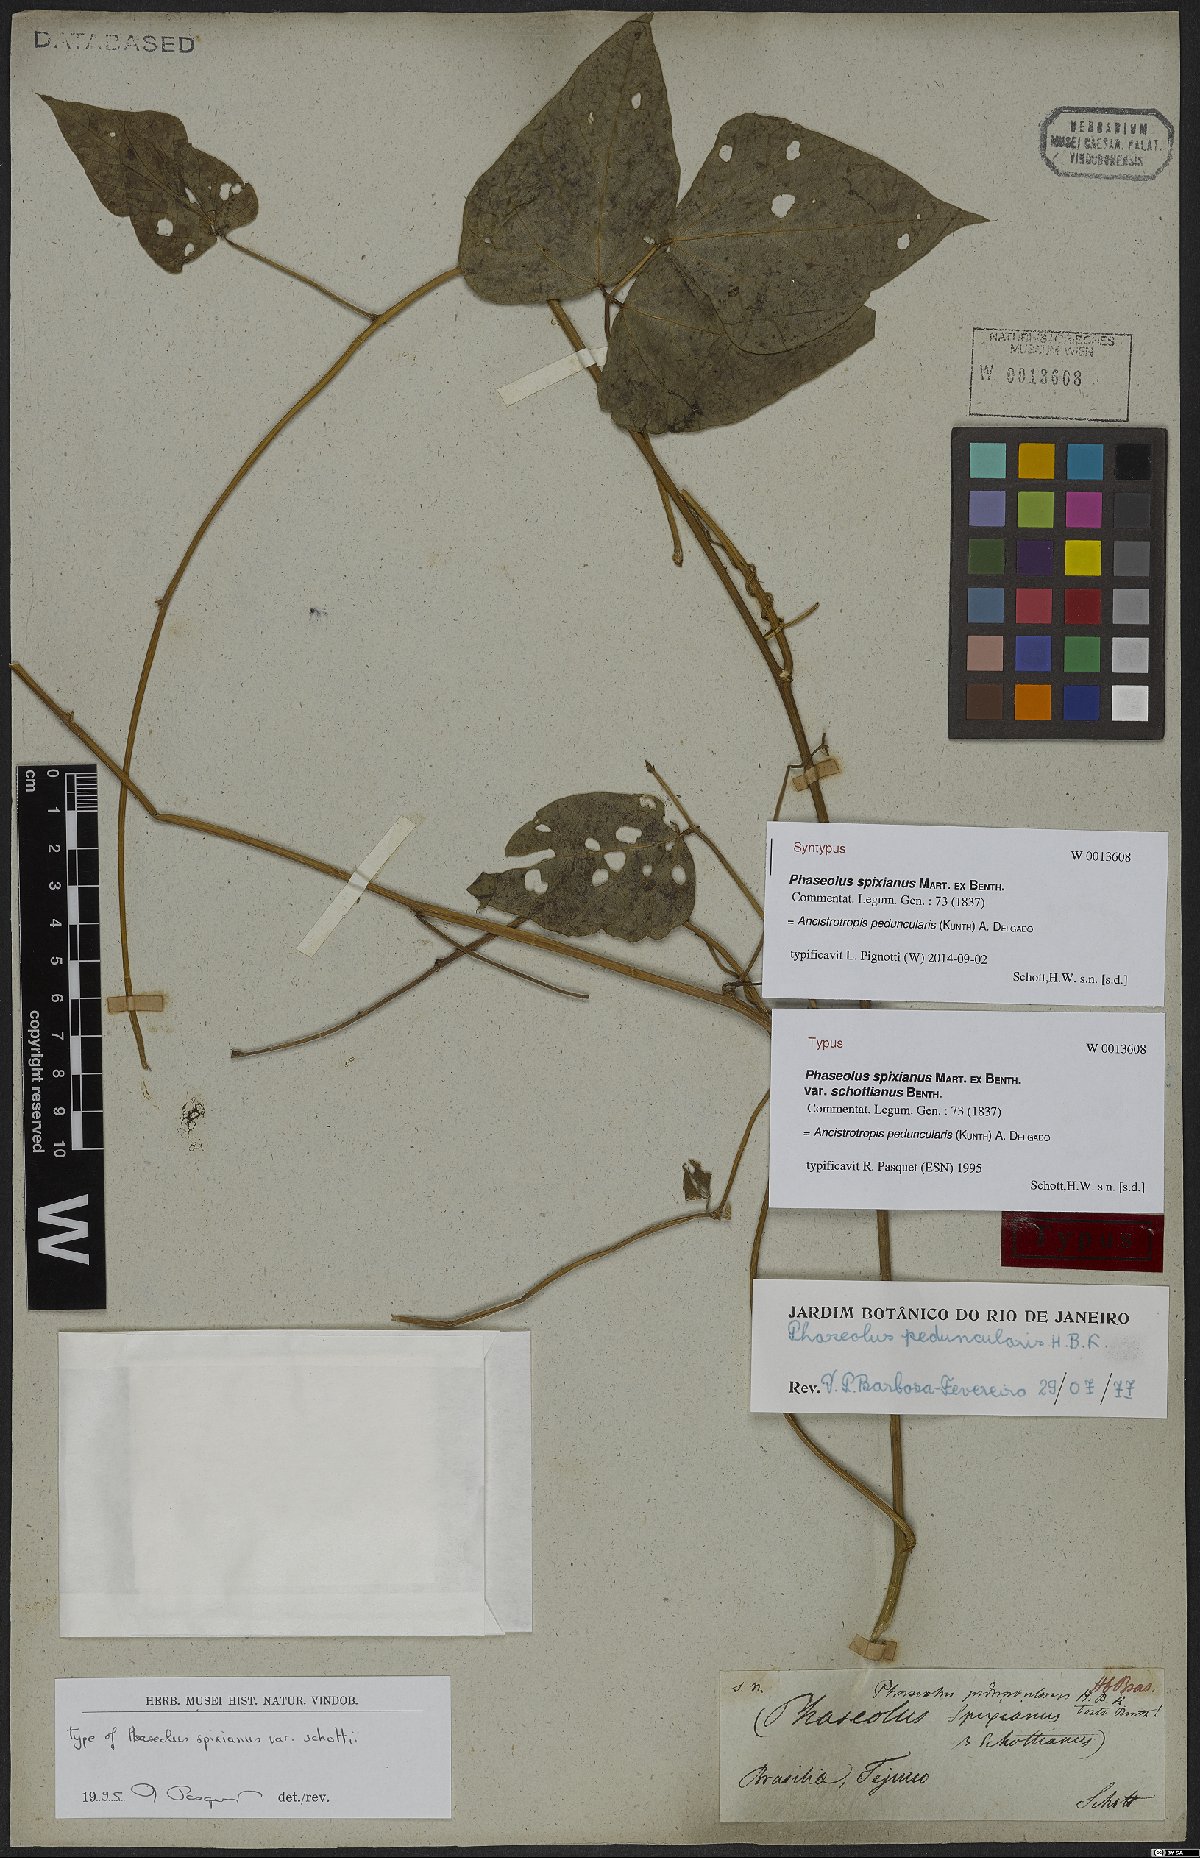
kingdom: Plantae
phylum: Tracheophyta
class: Magnoliopsida
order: Fabales
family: Fabaceae
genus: Ancistrotropis
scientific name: Ancistrotropis peduncularis
